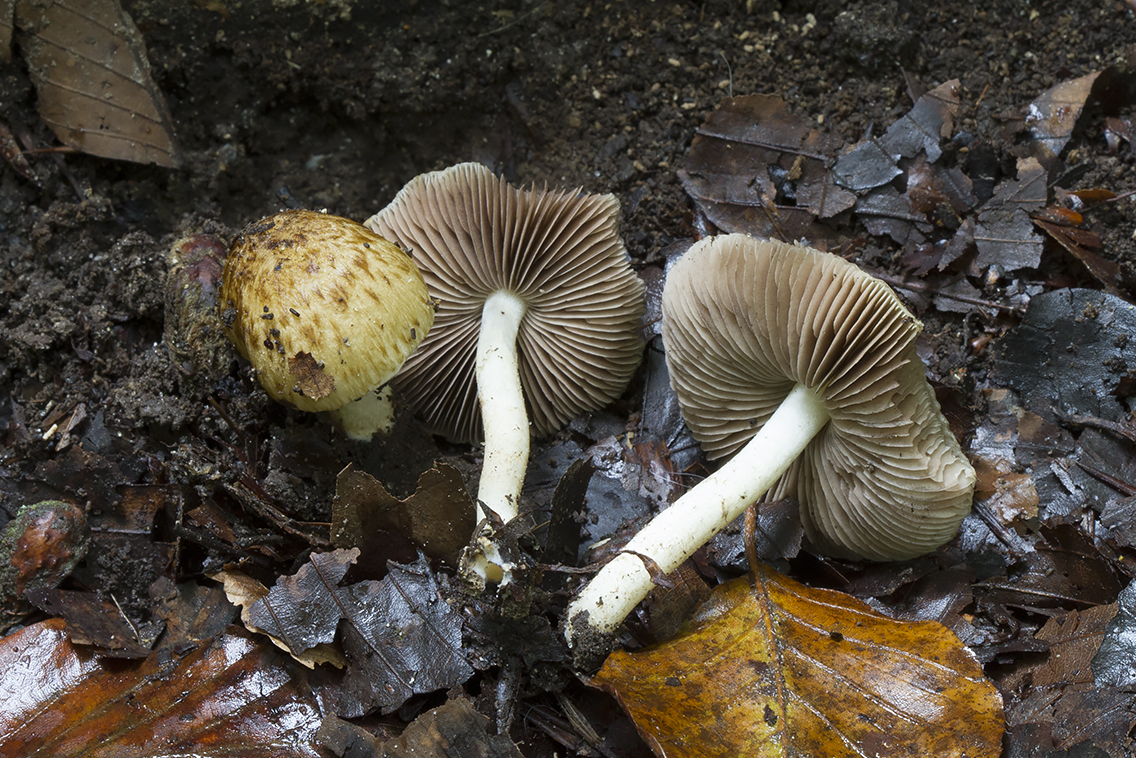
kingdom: Fungi
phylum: Basidiomycota
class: Agaricomycetes
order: Agaricales
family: Psathyrellaceae
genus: Cystoagaricus
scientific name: Cystoagaricus lepidotoides
